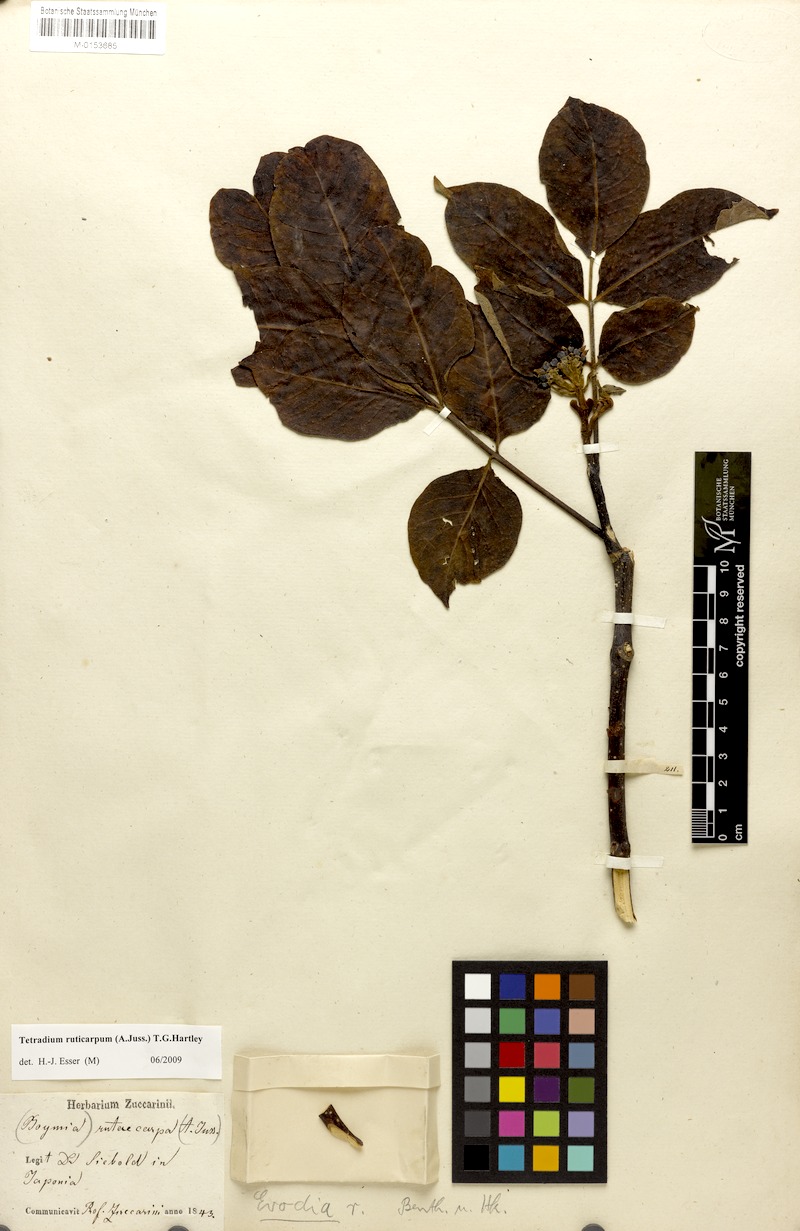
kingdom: Plantae
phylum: Tracheophyta
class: Magnoliopsida
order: Sapindales
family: Rutaceae
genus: Tetradium
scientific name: Tetradium ruticarpum
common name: Evodia
